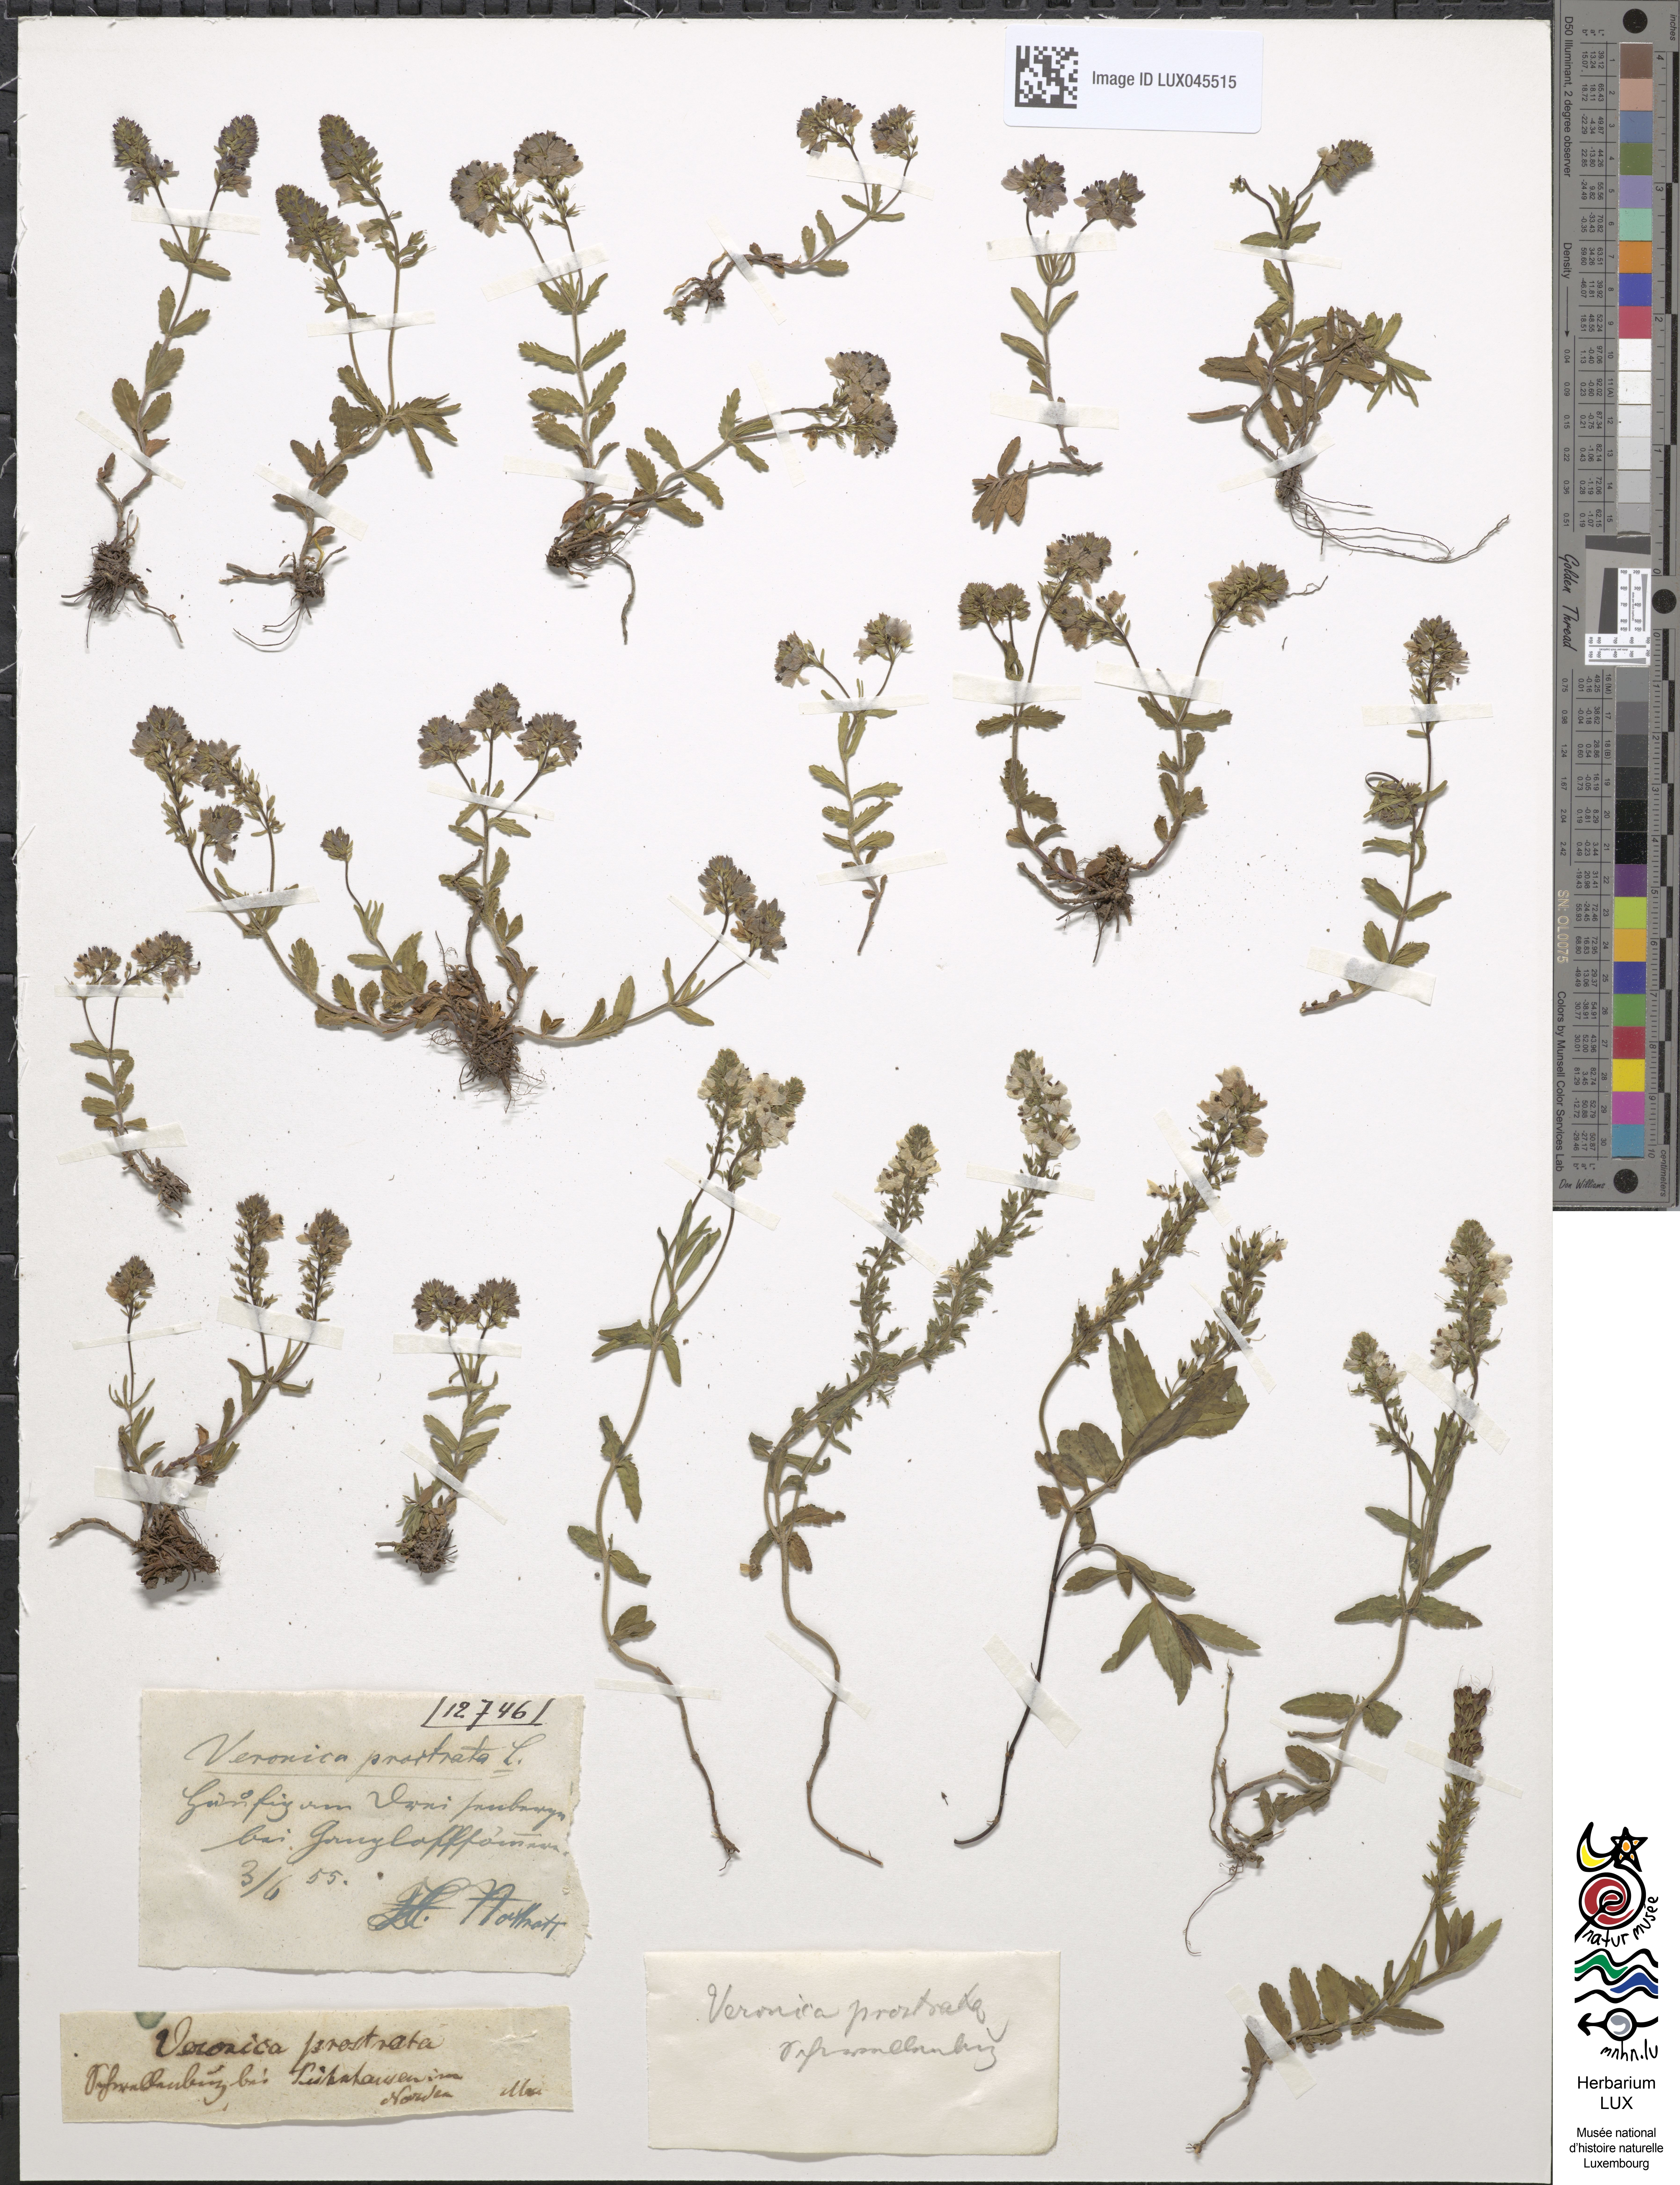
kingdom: Plantae
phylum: Tracheophyta
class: Magnoliopsida
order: Lamiales
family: Plantaginaceae
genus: Veronica
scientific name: Veronica prostrata
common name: Prostrate speedwell
